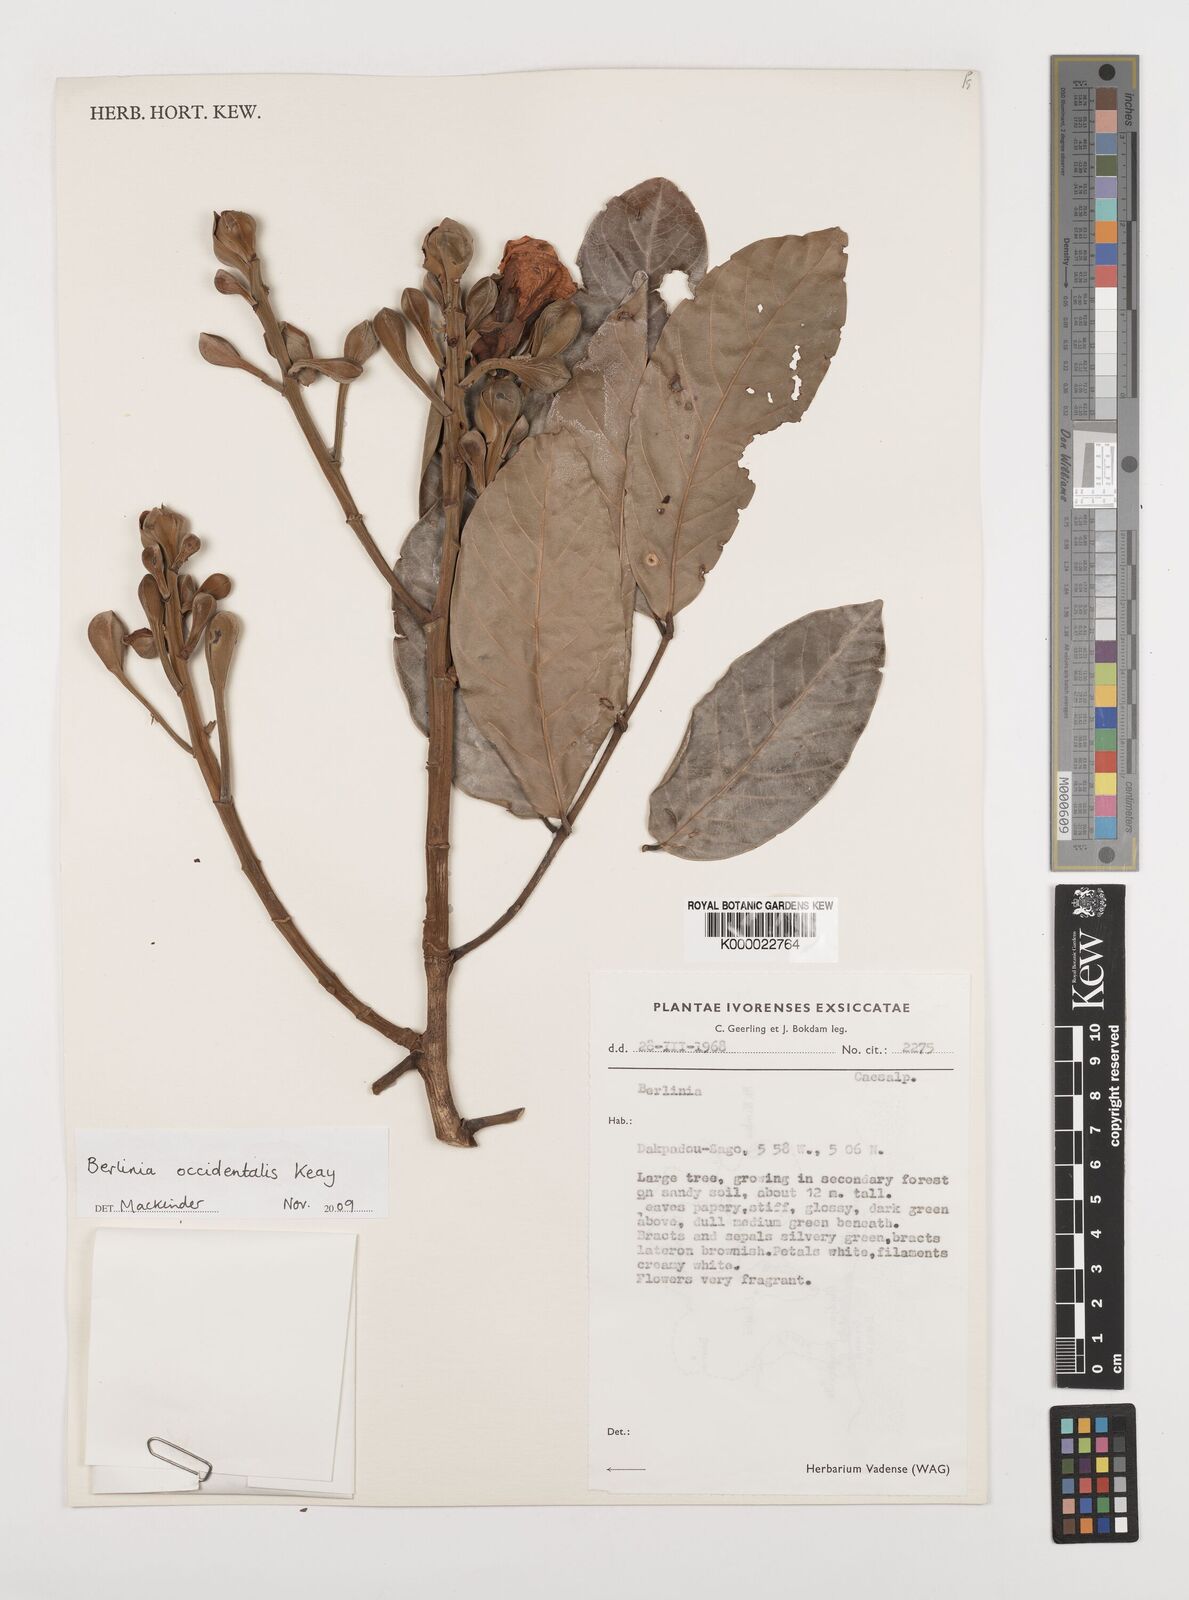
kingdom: Plantae
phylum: Tracheophyta
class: Magnoliopsida
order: Fabales
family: Fabaceae
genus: Berlinia
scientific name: Berlinia occidentalis
